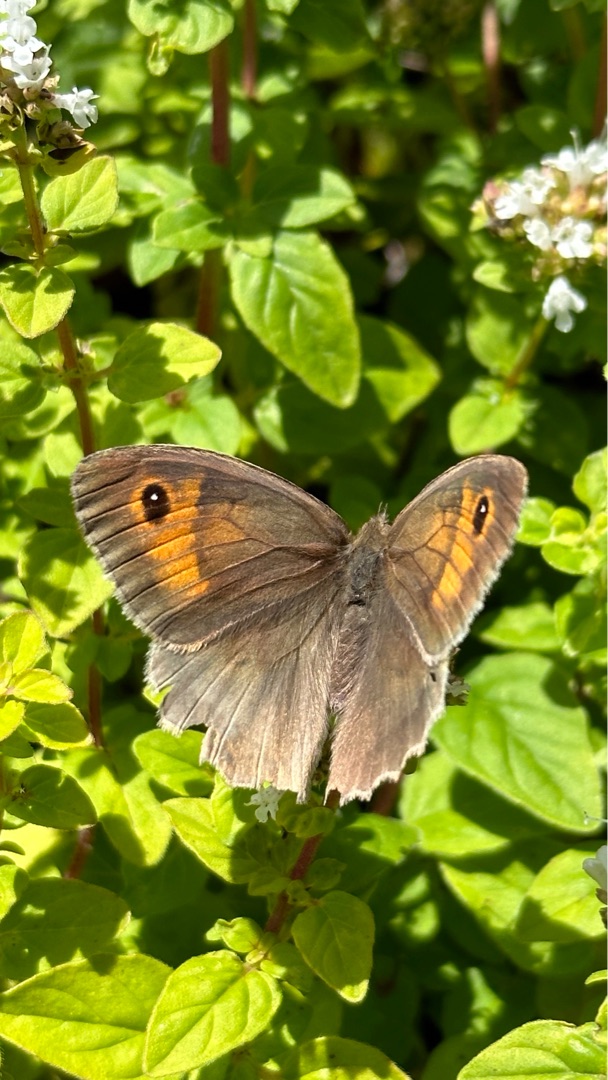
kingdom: Animalia
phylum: Arthropoda
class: Insecta
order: Lepidoptera
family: Nymphalidae
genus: Maniola
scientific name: Maniola jurtina
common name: Græsrandøje
